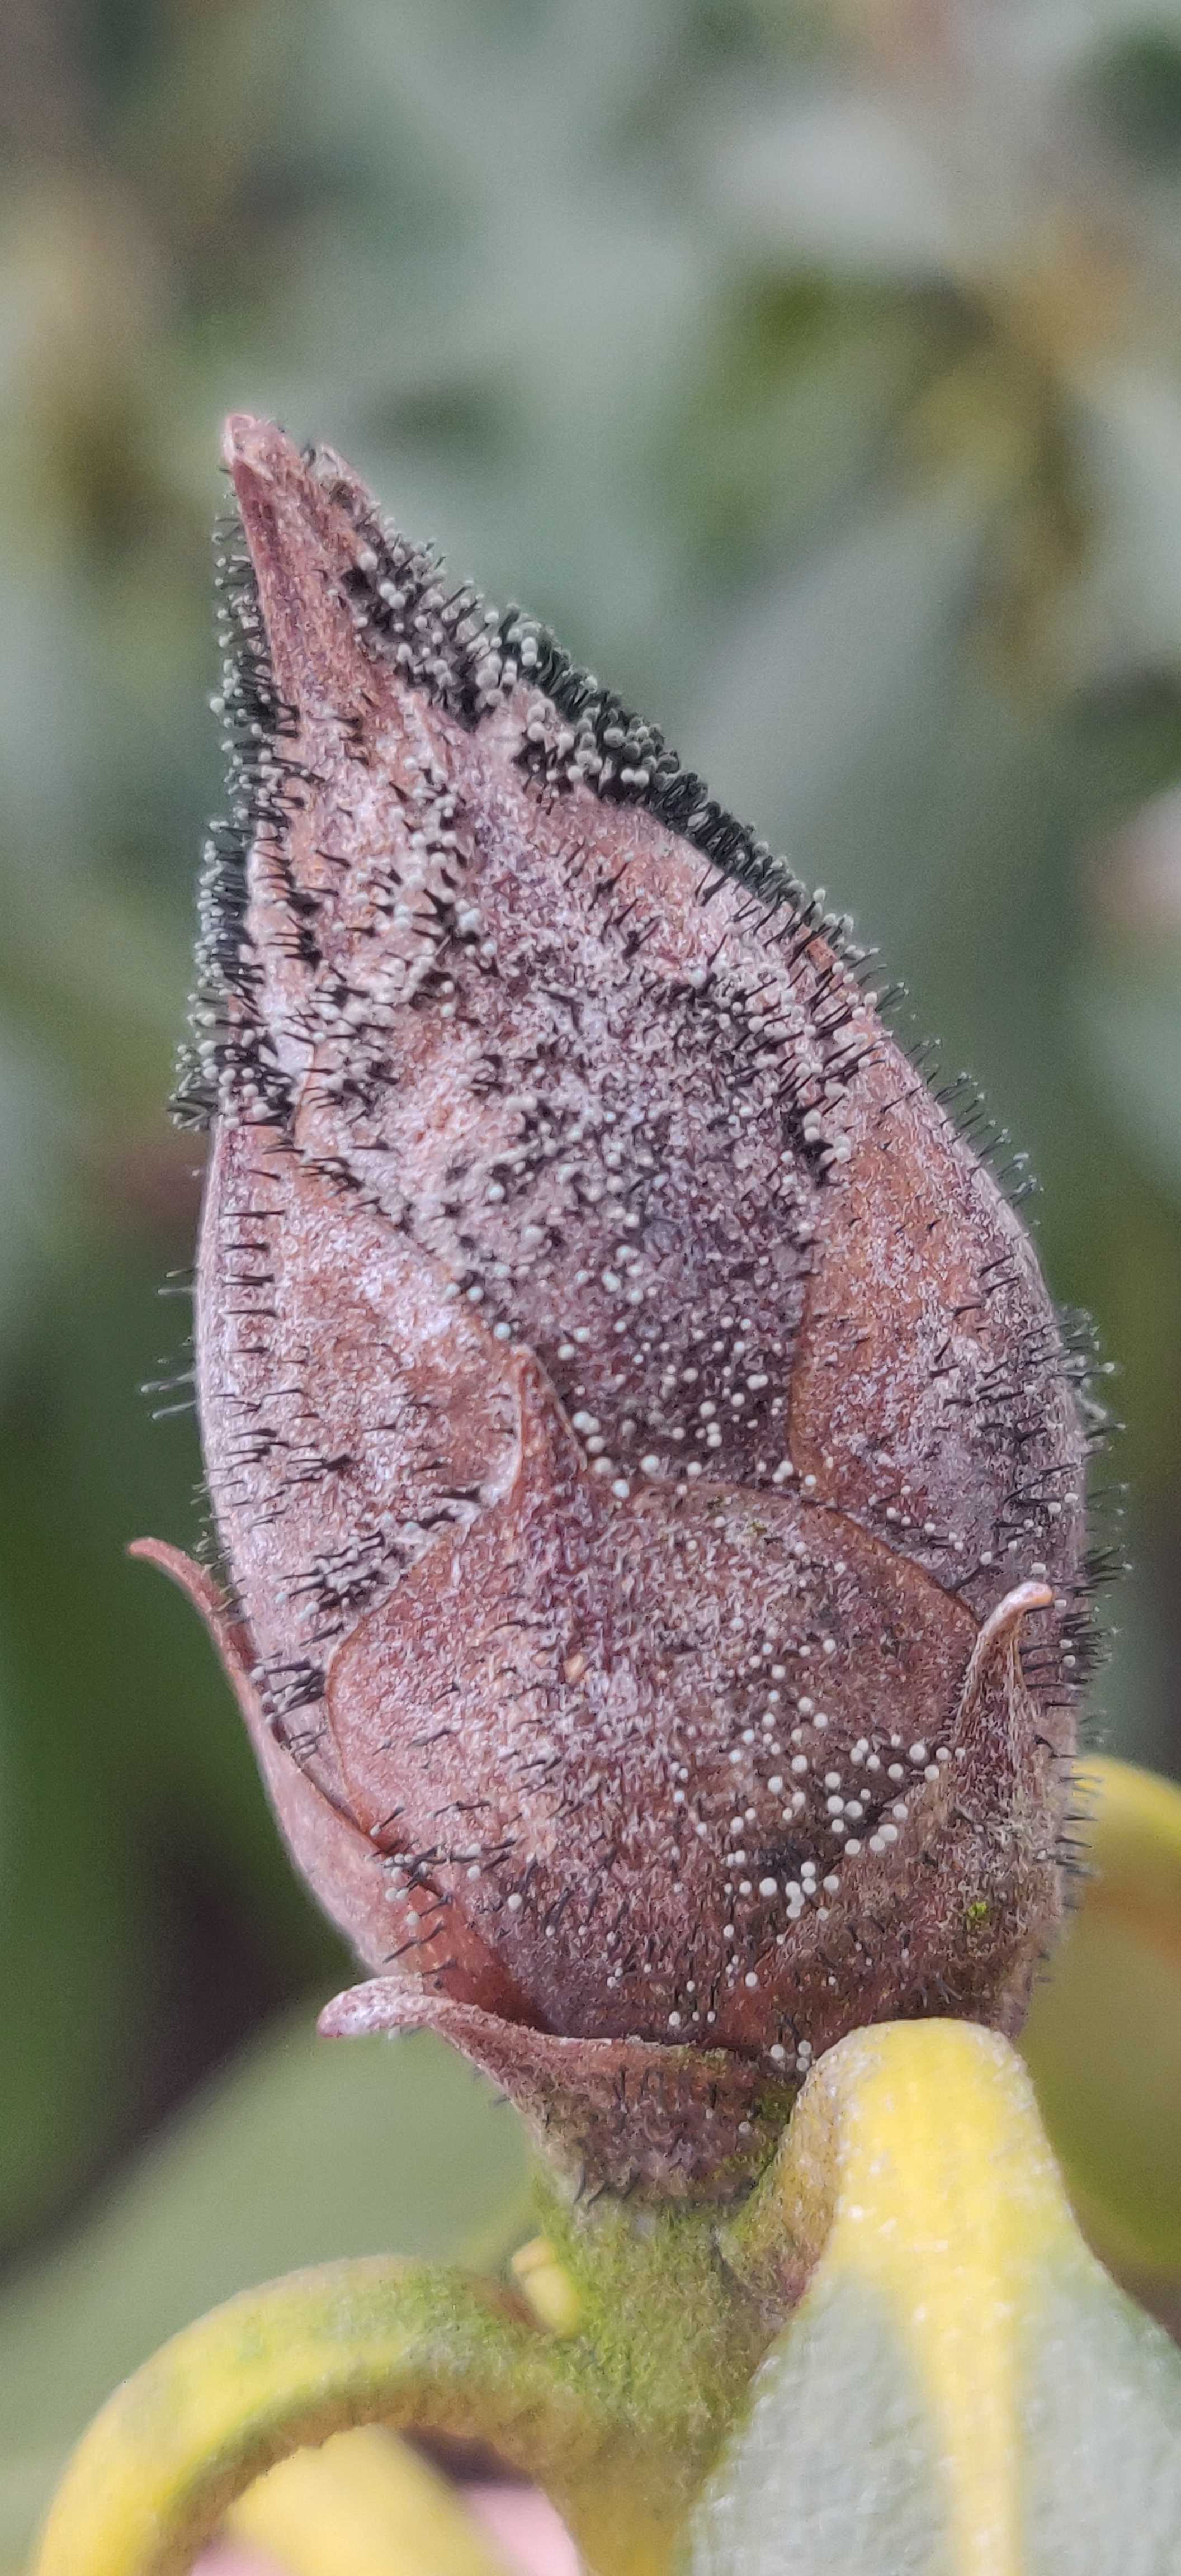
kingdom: Fungi
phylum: Ascomycota
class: Dothideomycetes
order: Pleosporales
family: Melanommataceae
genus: Seifertia
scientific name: Seifertia azaleae
